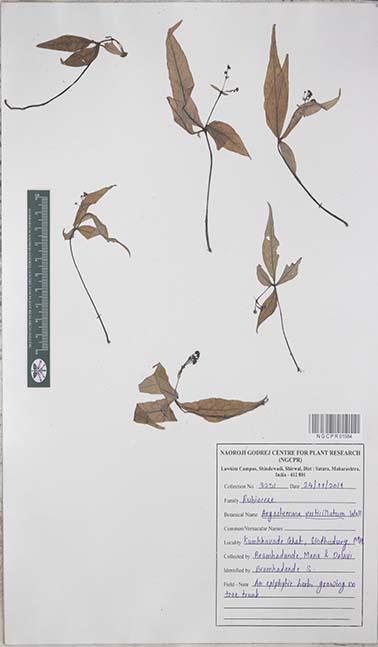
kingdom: Plantae
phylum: Tracheophyta
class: Magnoliopsida
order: Gentianales
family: Rubiaceae
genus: Argostemma
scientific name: Argostemma verticillatum
